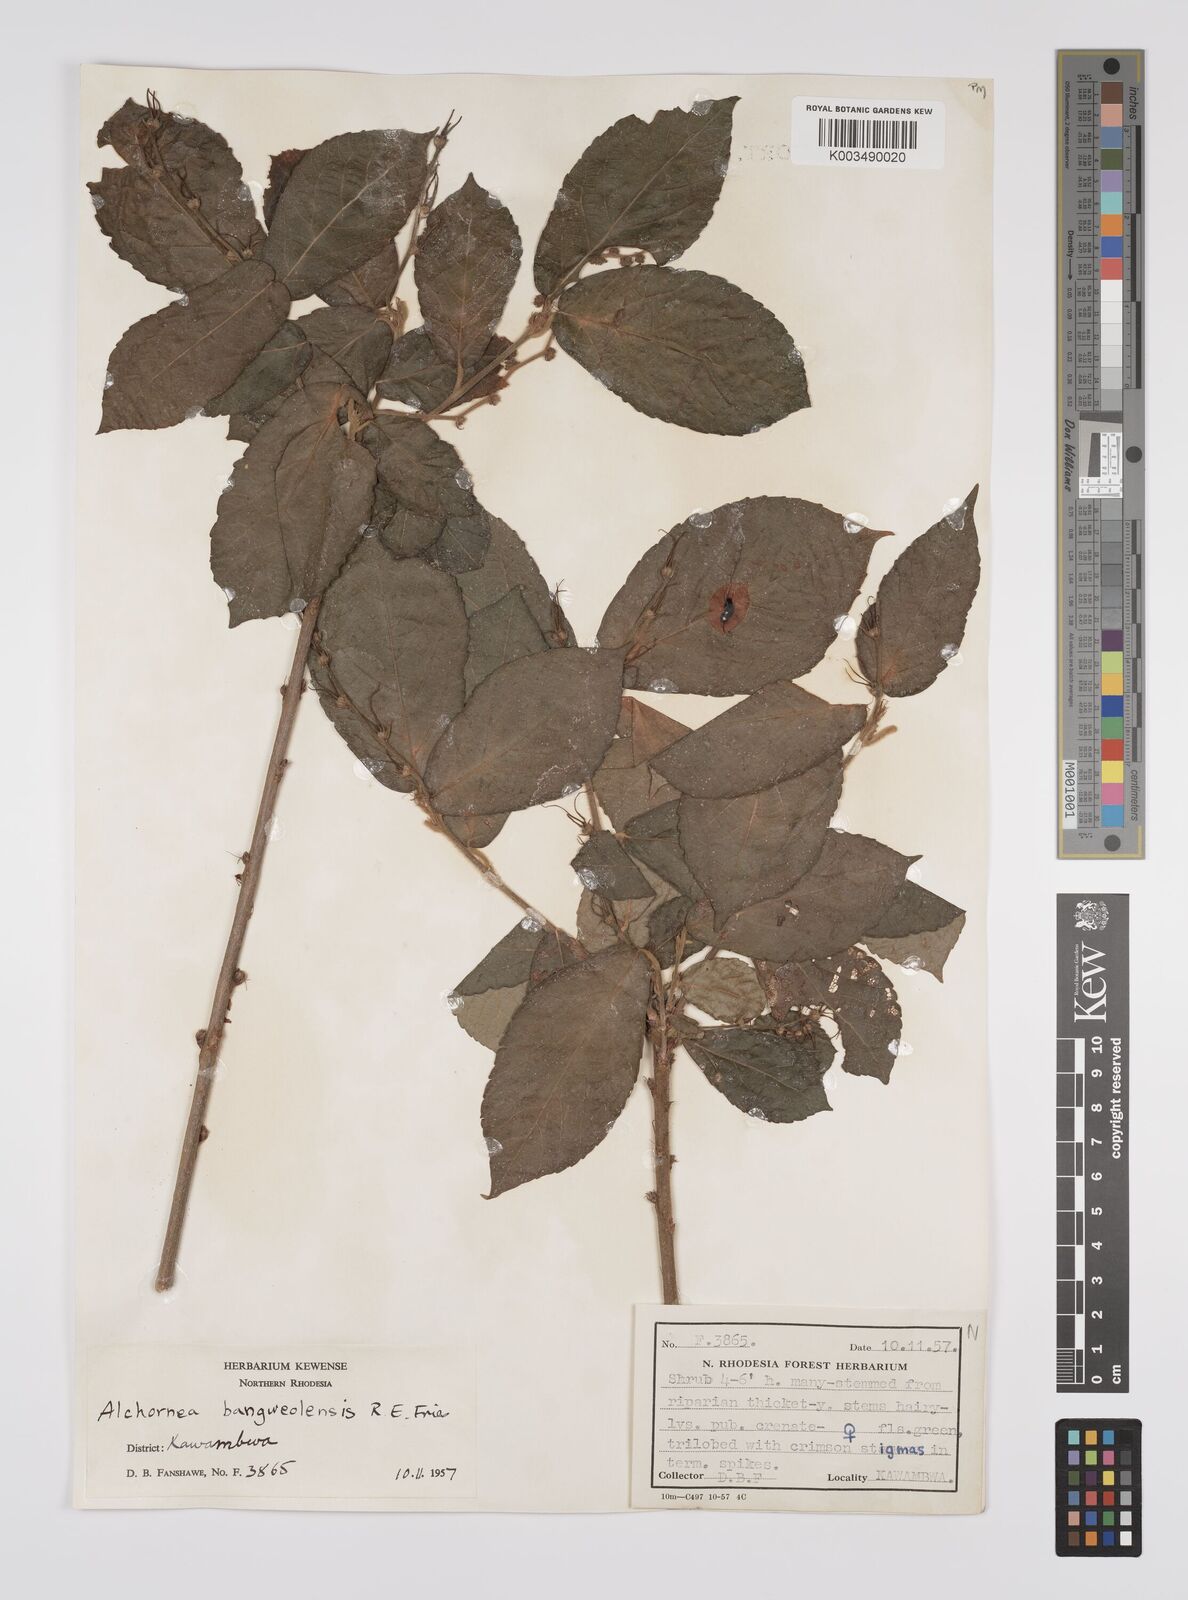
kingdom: Plantae
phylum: Tracheophyta
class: Magnoliopsida
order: Malpighiales
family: Euphorbiaceae
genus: Alchornea
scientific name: Alchornea yambuyaensis
